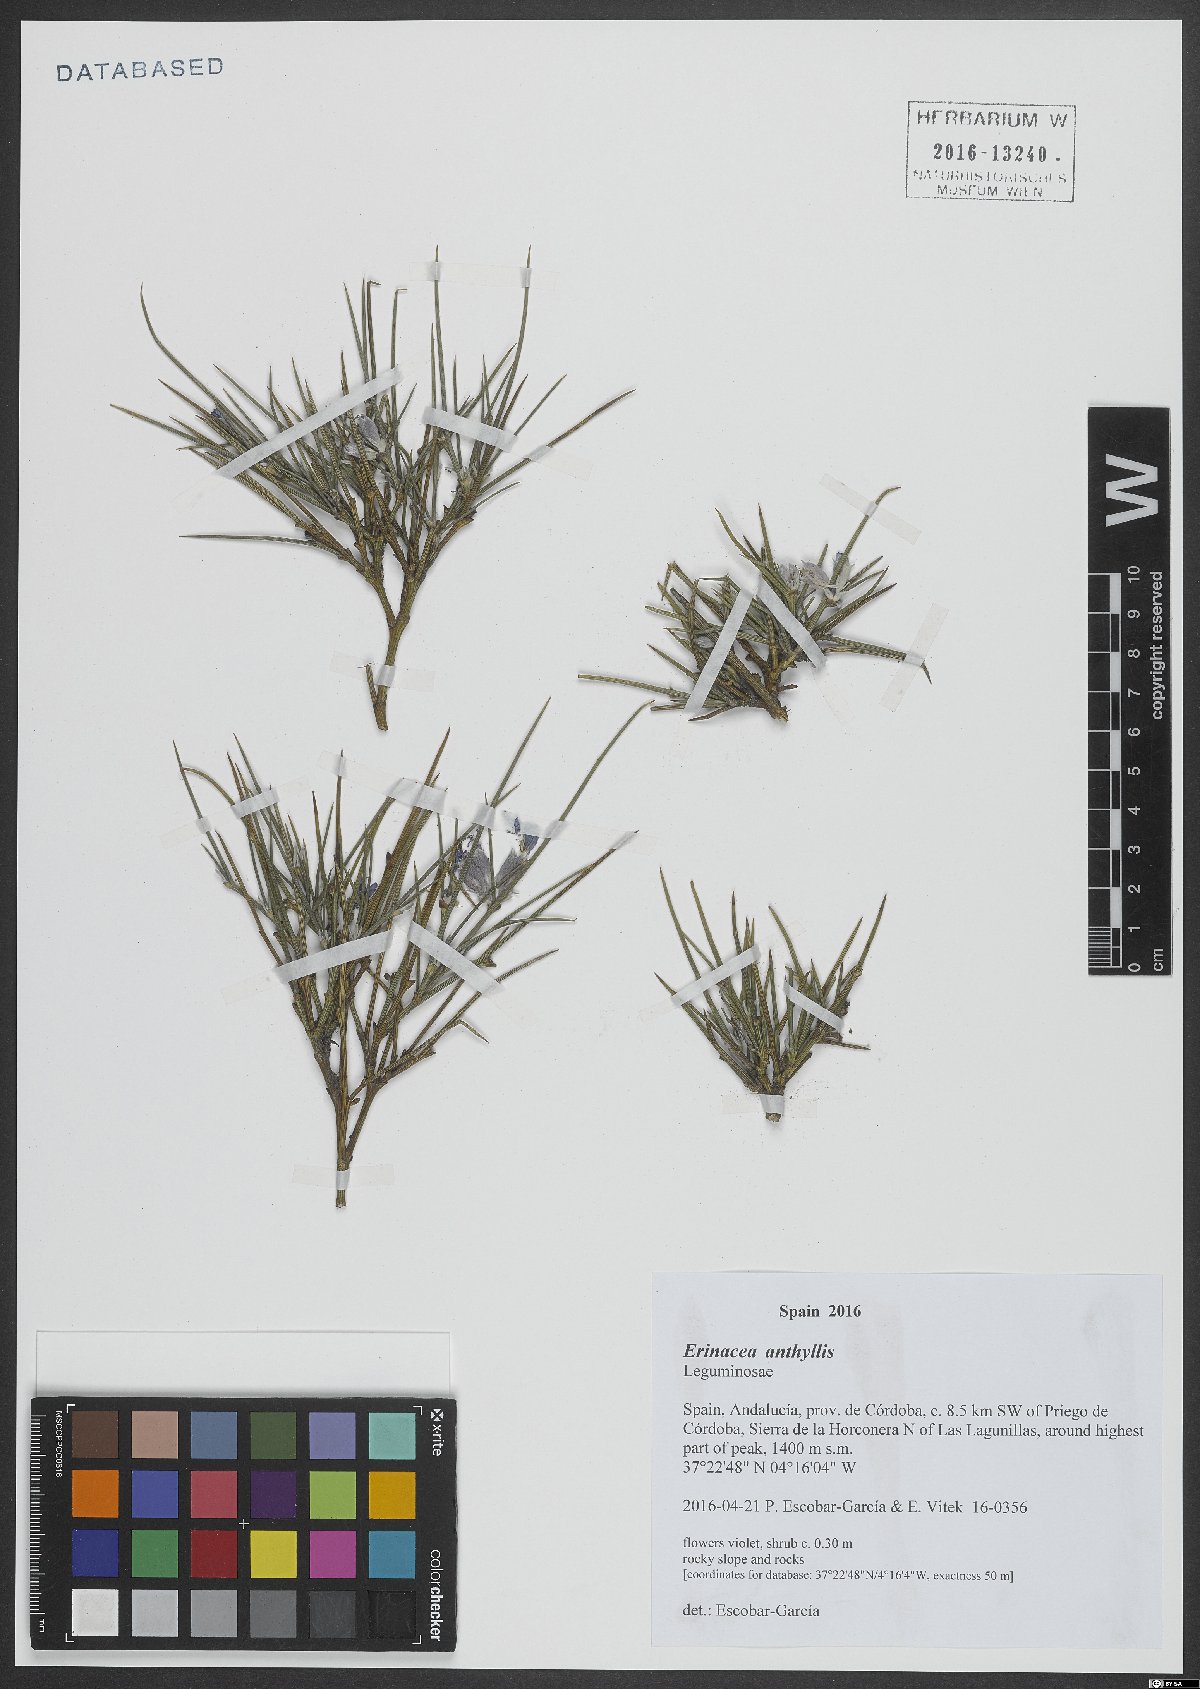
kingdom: Plantae
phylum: Tracheophyta
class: Magnoliopsida
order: Fabales
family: Fabaceae
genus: Erinacea
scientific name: Erinacea anthyllis
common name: Hedgehog-broom
